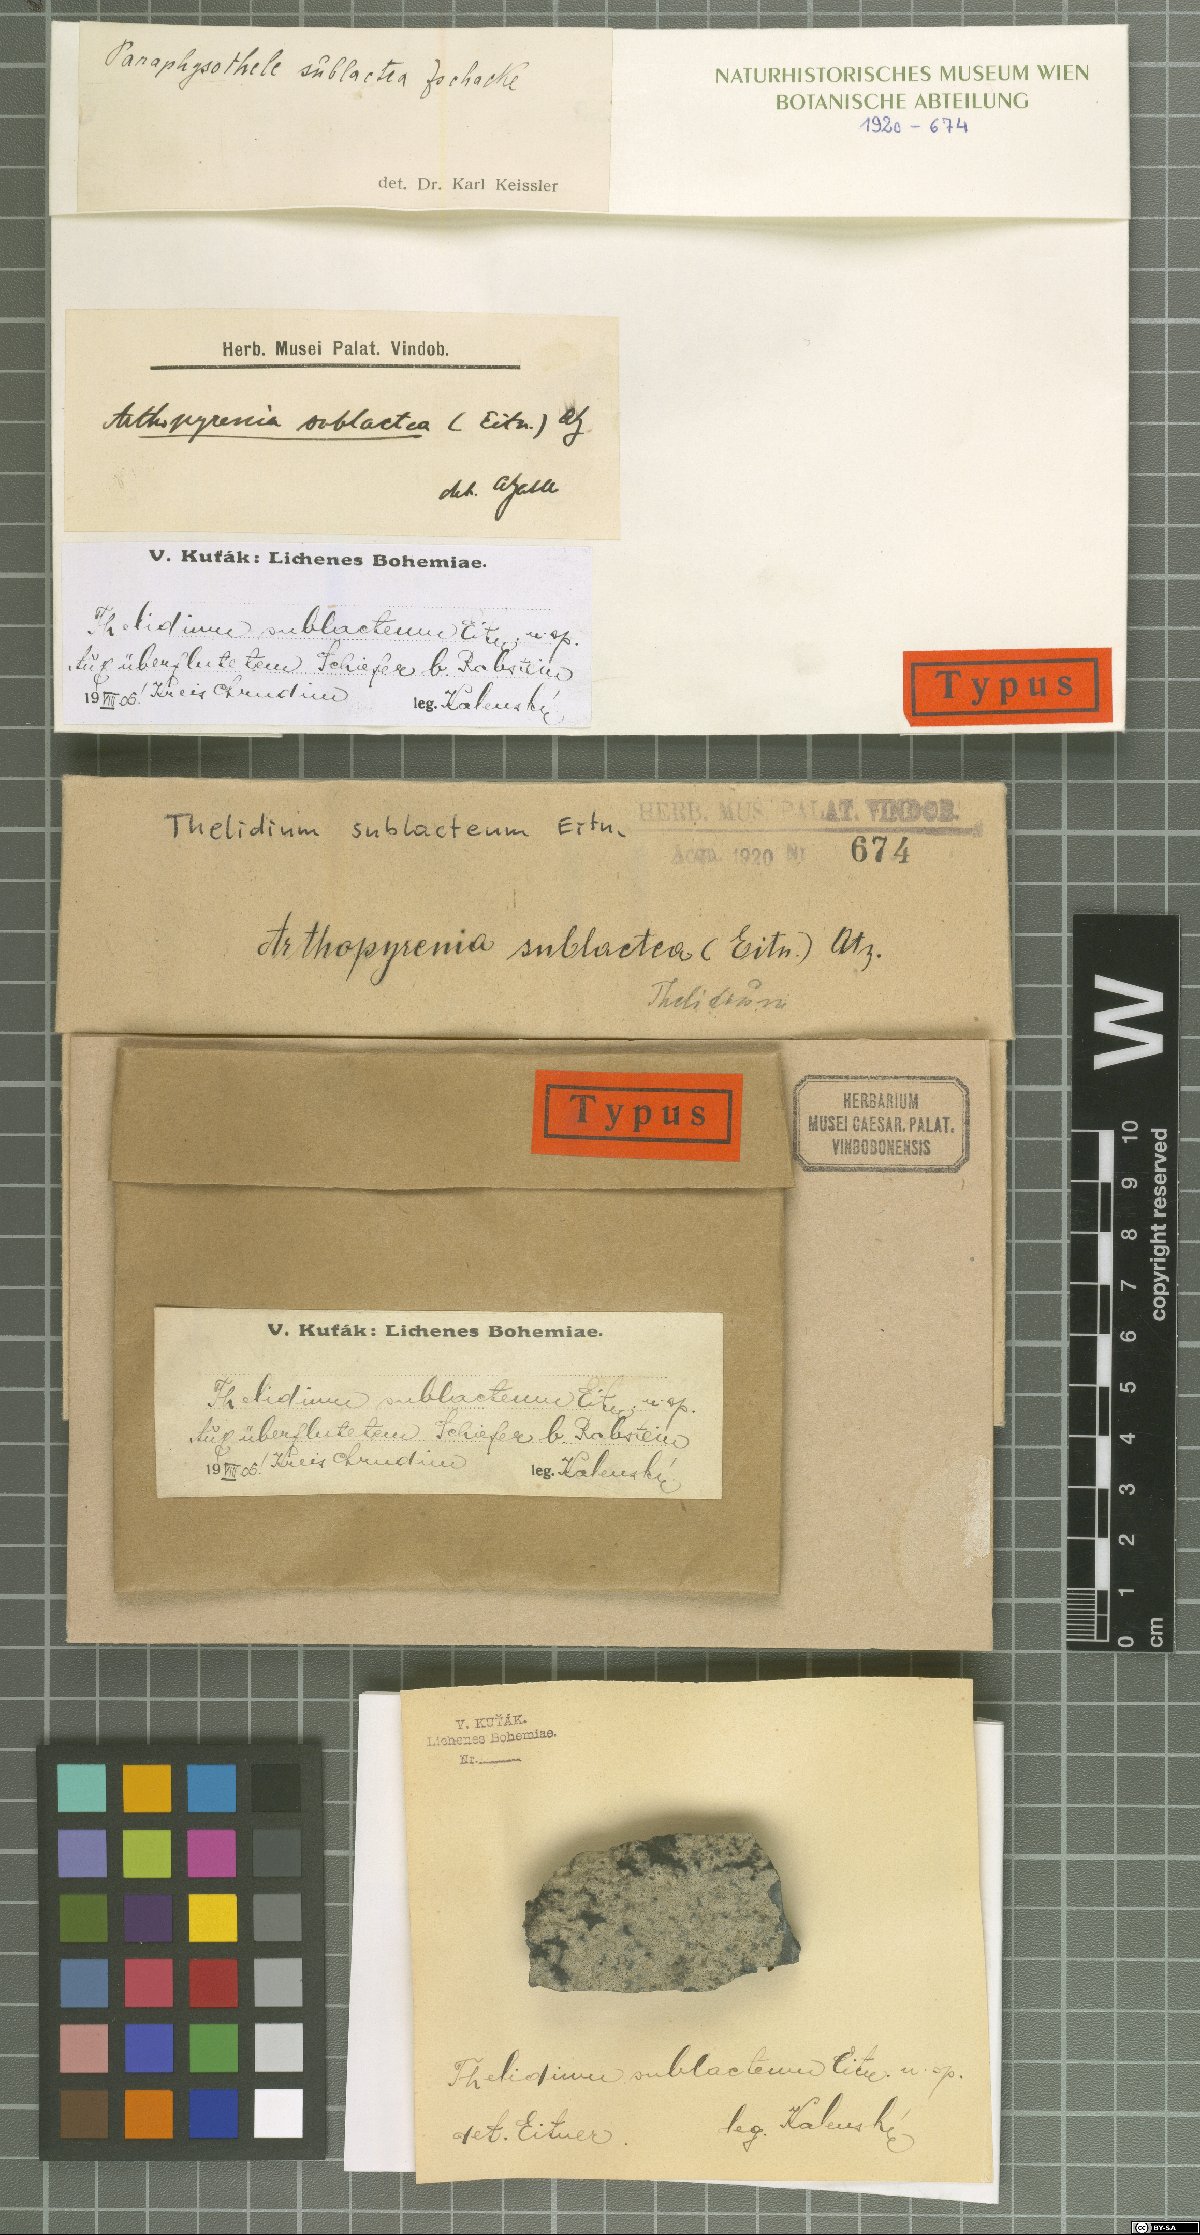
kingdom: Fungi
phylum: Ascomycota
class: Eurotiomycetes
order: Verrucariales
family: Verrucariaceae
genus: Thelidium
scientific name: Thelidium sublacteum
